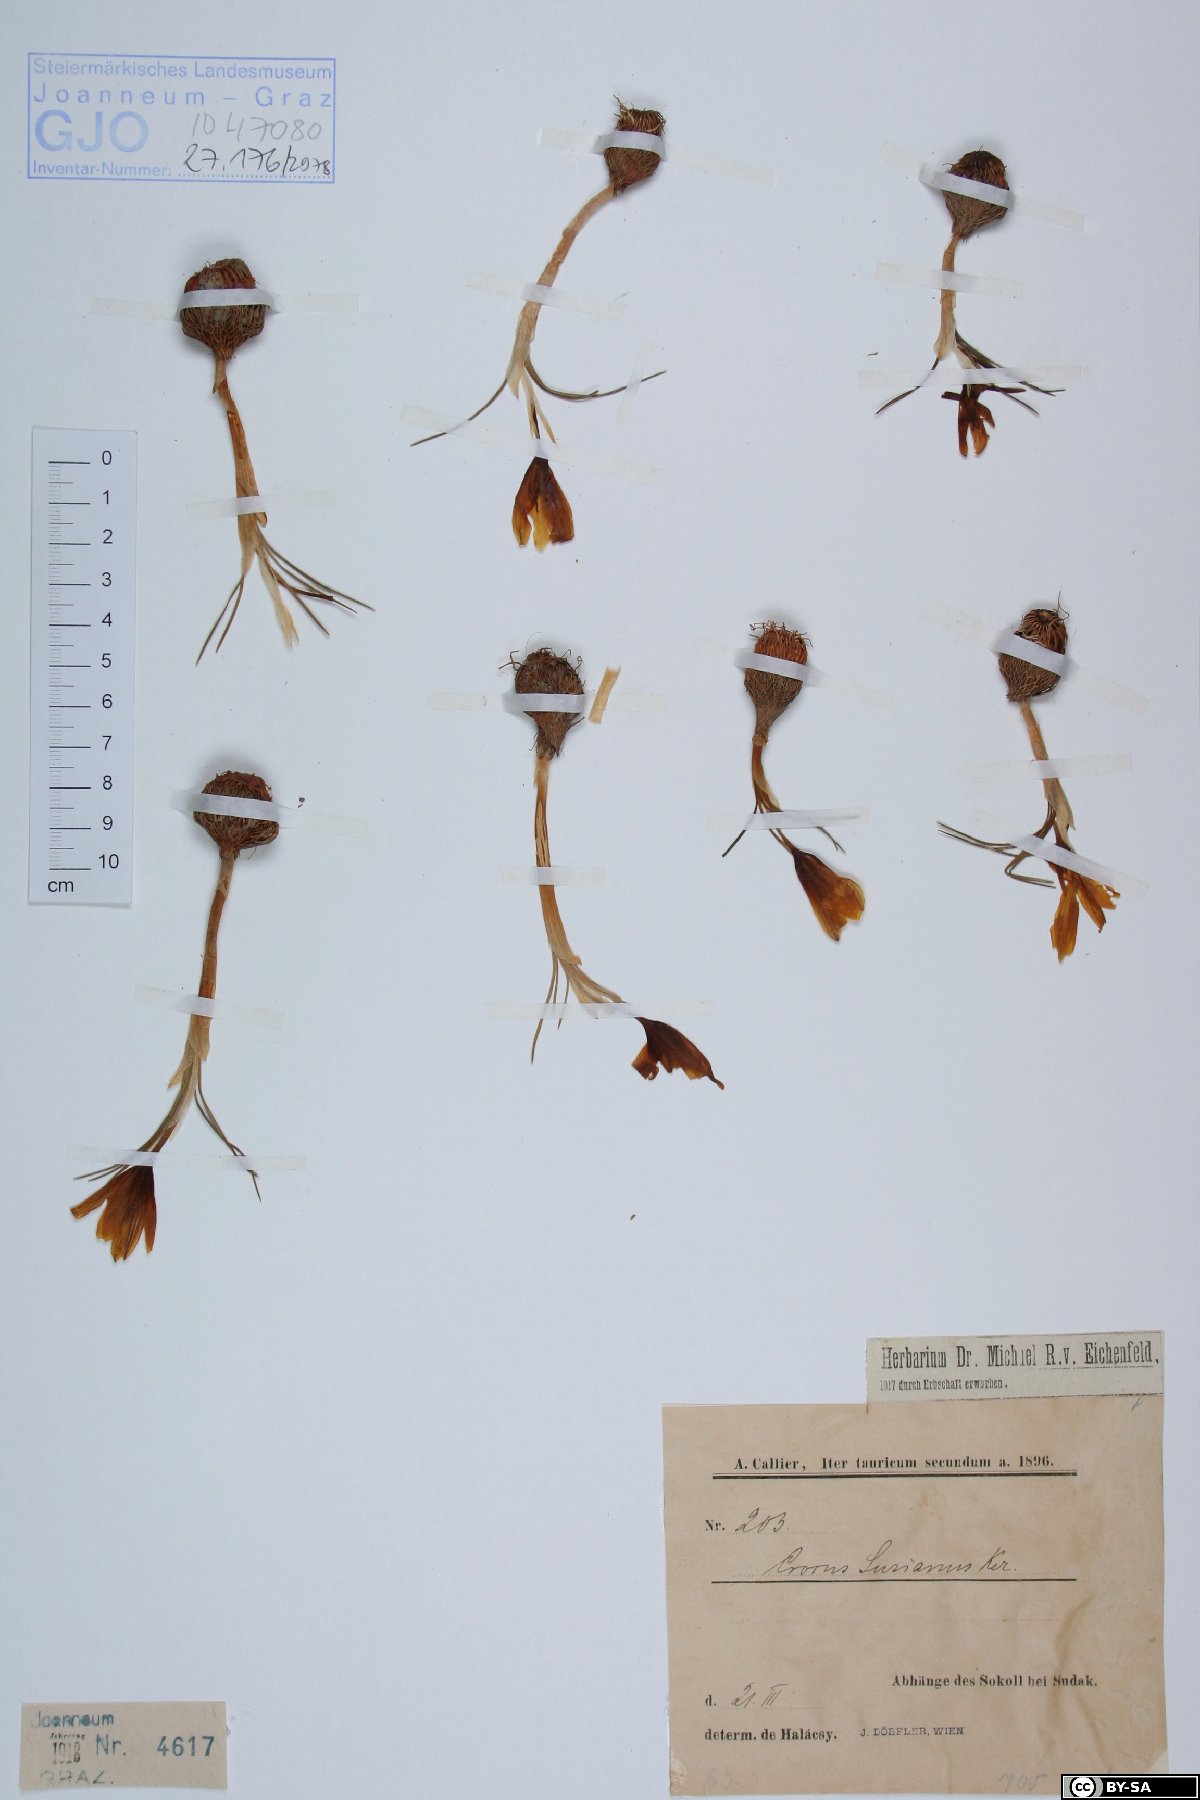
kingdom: Plantae
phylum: Tracheophyta
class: Liliopsida
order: Asparagales
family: Iridaceae
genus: Crocus
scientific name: Crocus angustifolius
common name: Cloth of gold
